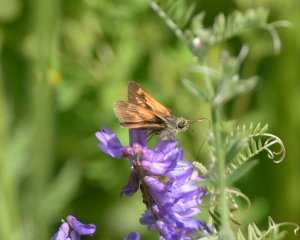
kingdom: Animalia
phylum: Arthropoda
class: Insecta
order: Lepidoptera
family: Hesperiidae
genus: Polites
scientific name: Polites
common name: Long Dash Skipper
